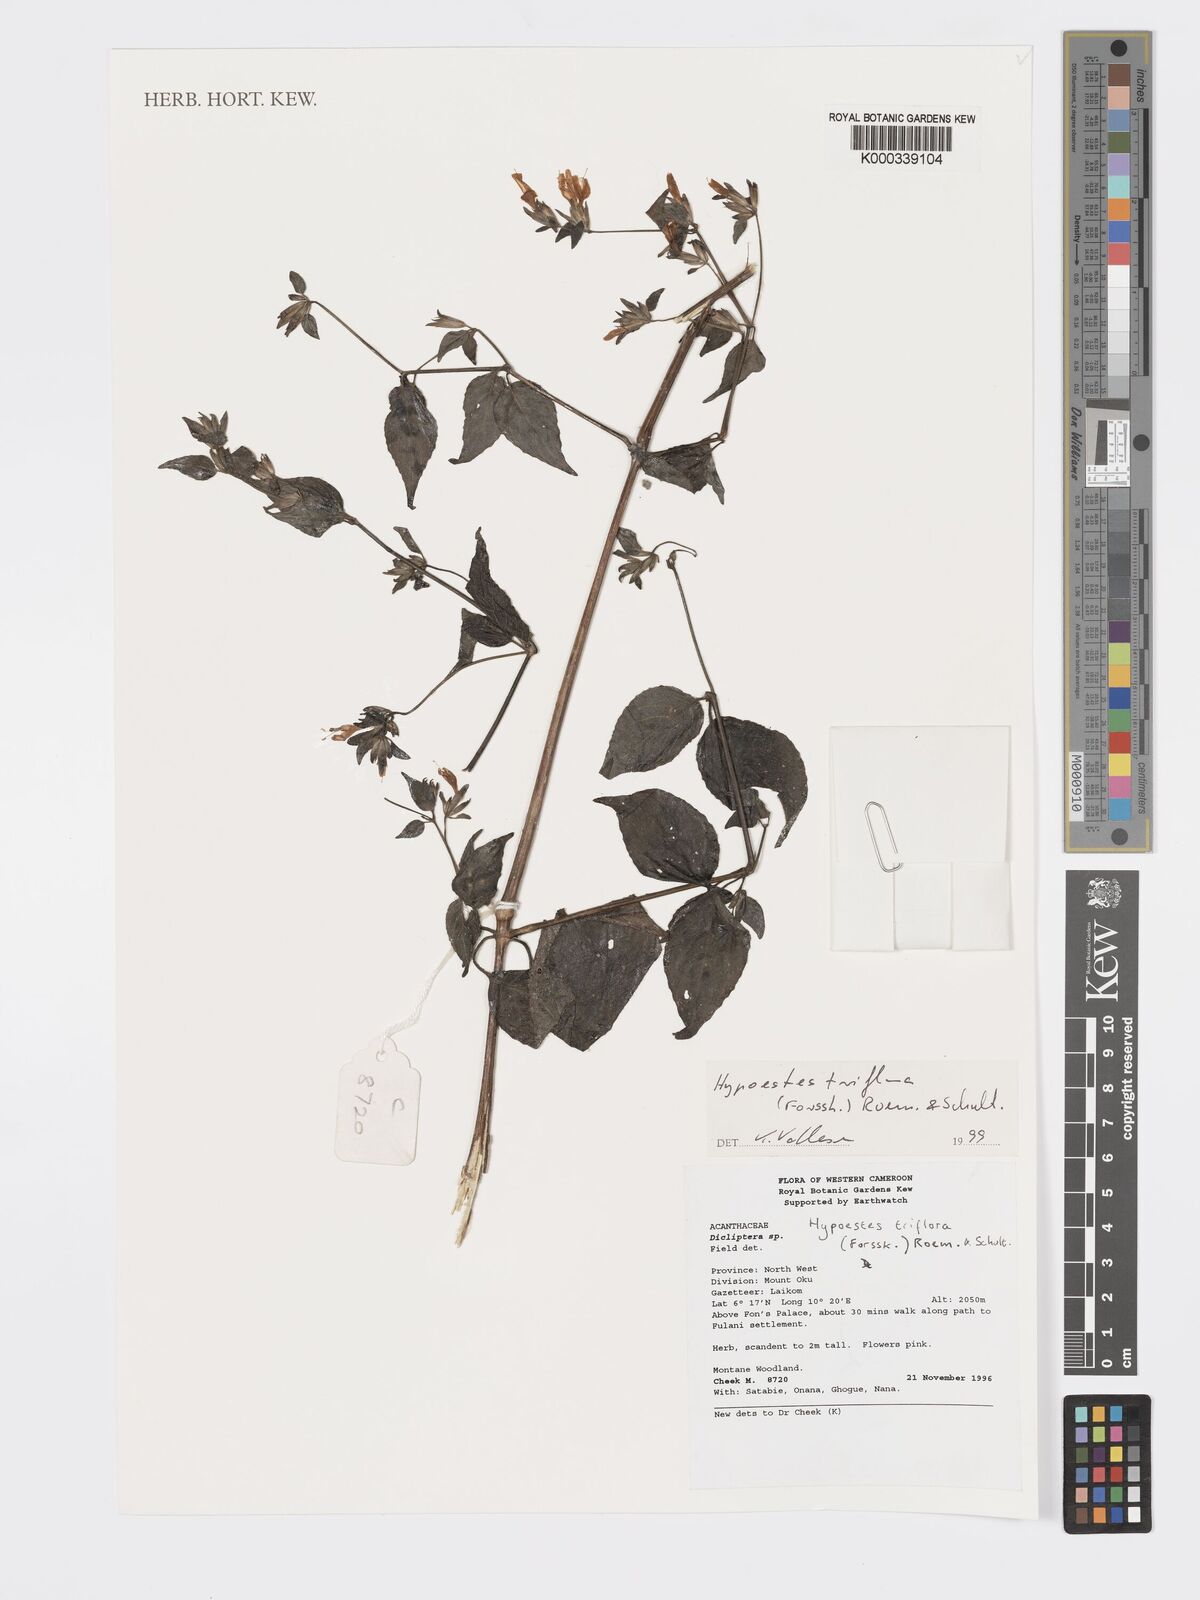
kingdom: Plantae
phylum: Tracheophyta
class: Magnoliopsida
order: Lamiales
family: Acanthaceae
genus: Hypoestes
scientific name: Hypoestes triflora
